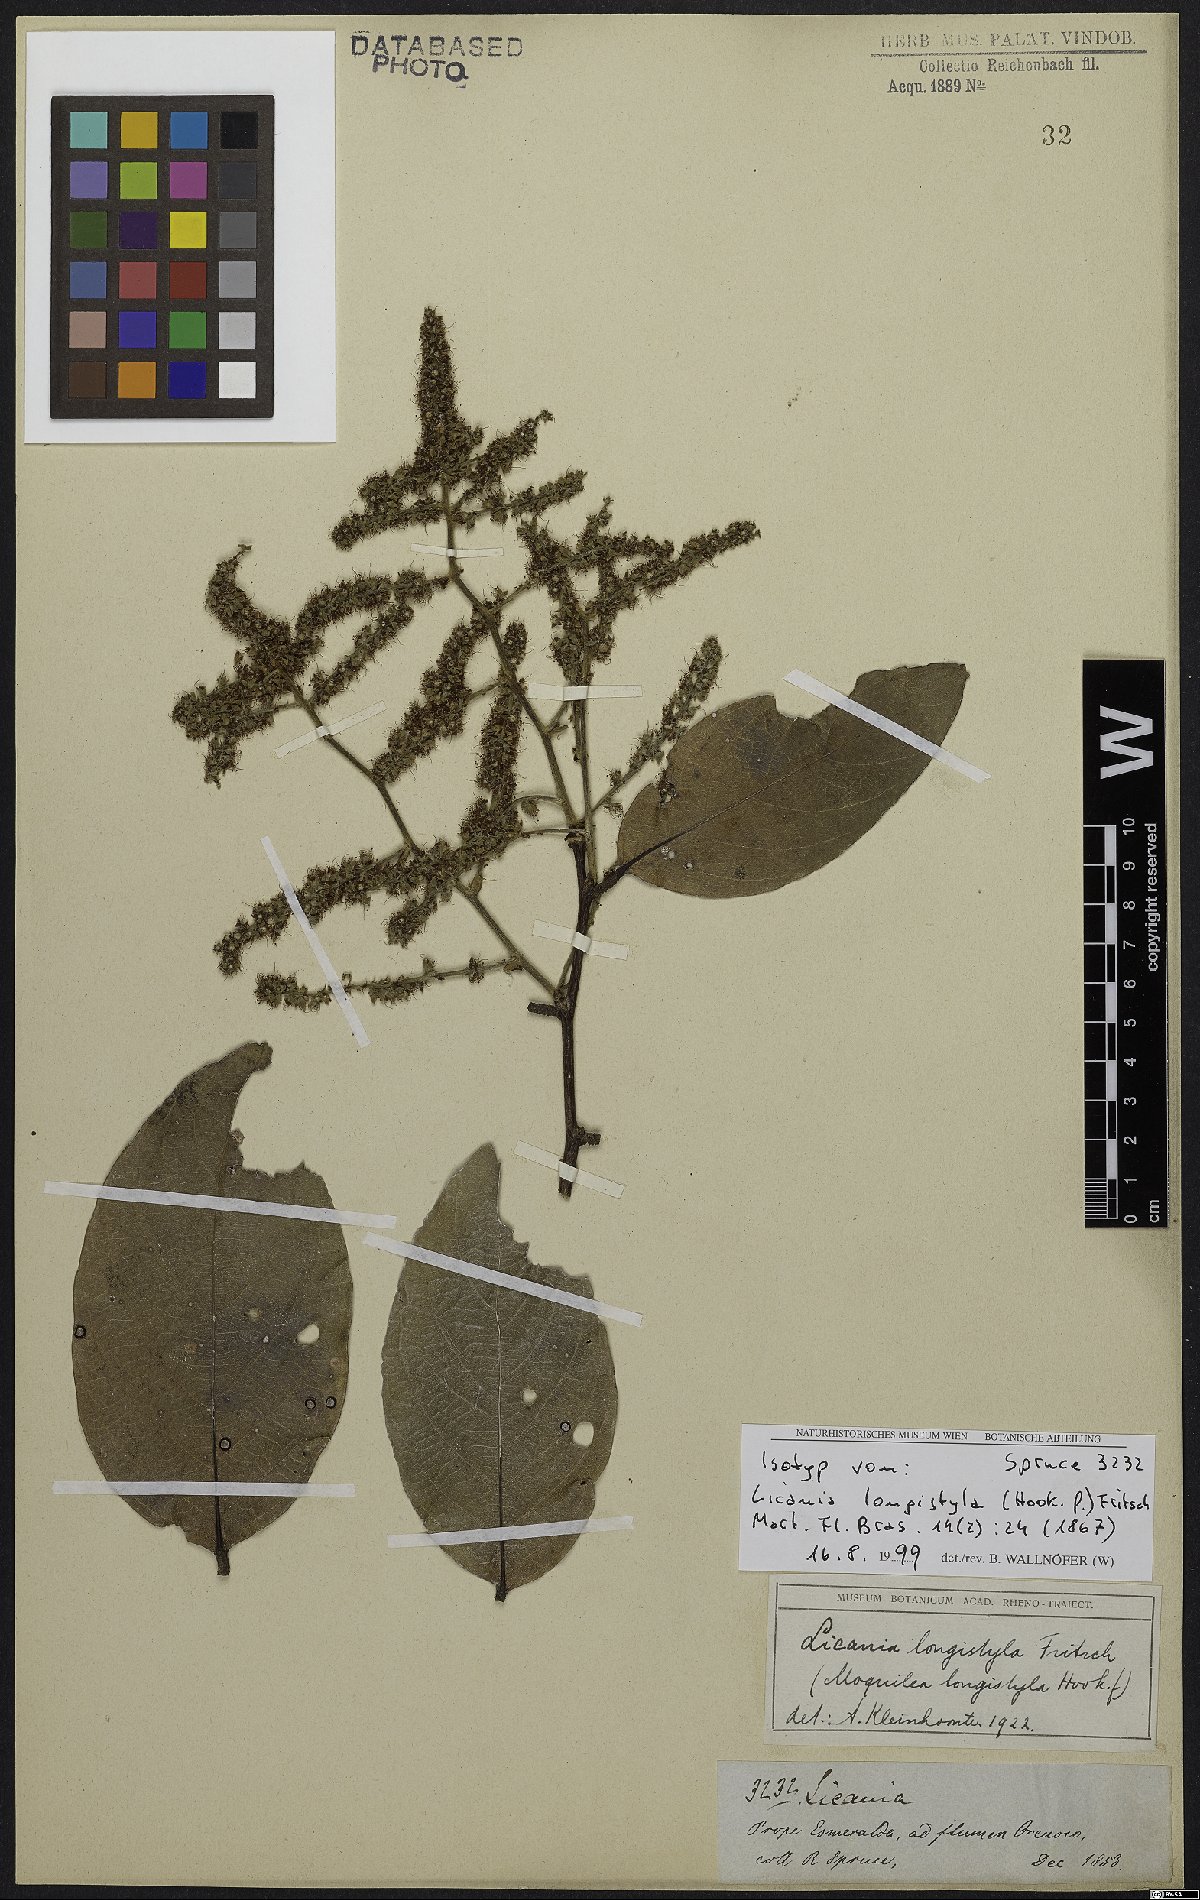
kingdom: Plantae
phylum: Tracheophyta
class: Magnoliopsida
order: Malpighiales
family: Chrysobalanaceae
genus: Leptobalanus
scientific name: Leptobalanus longistylus
